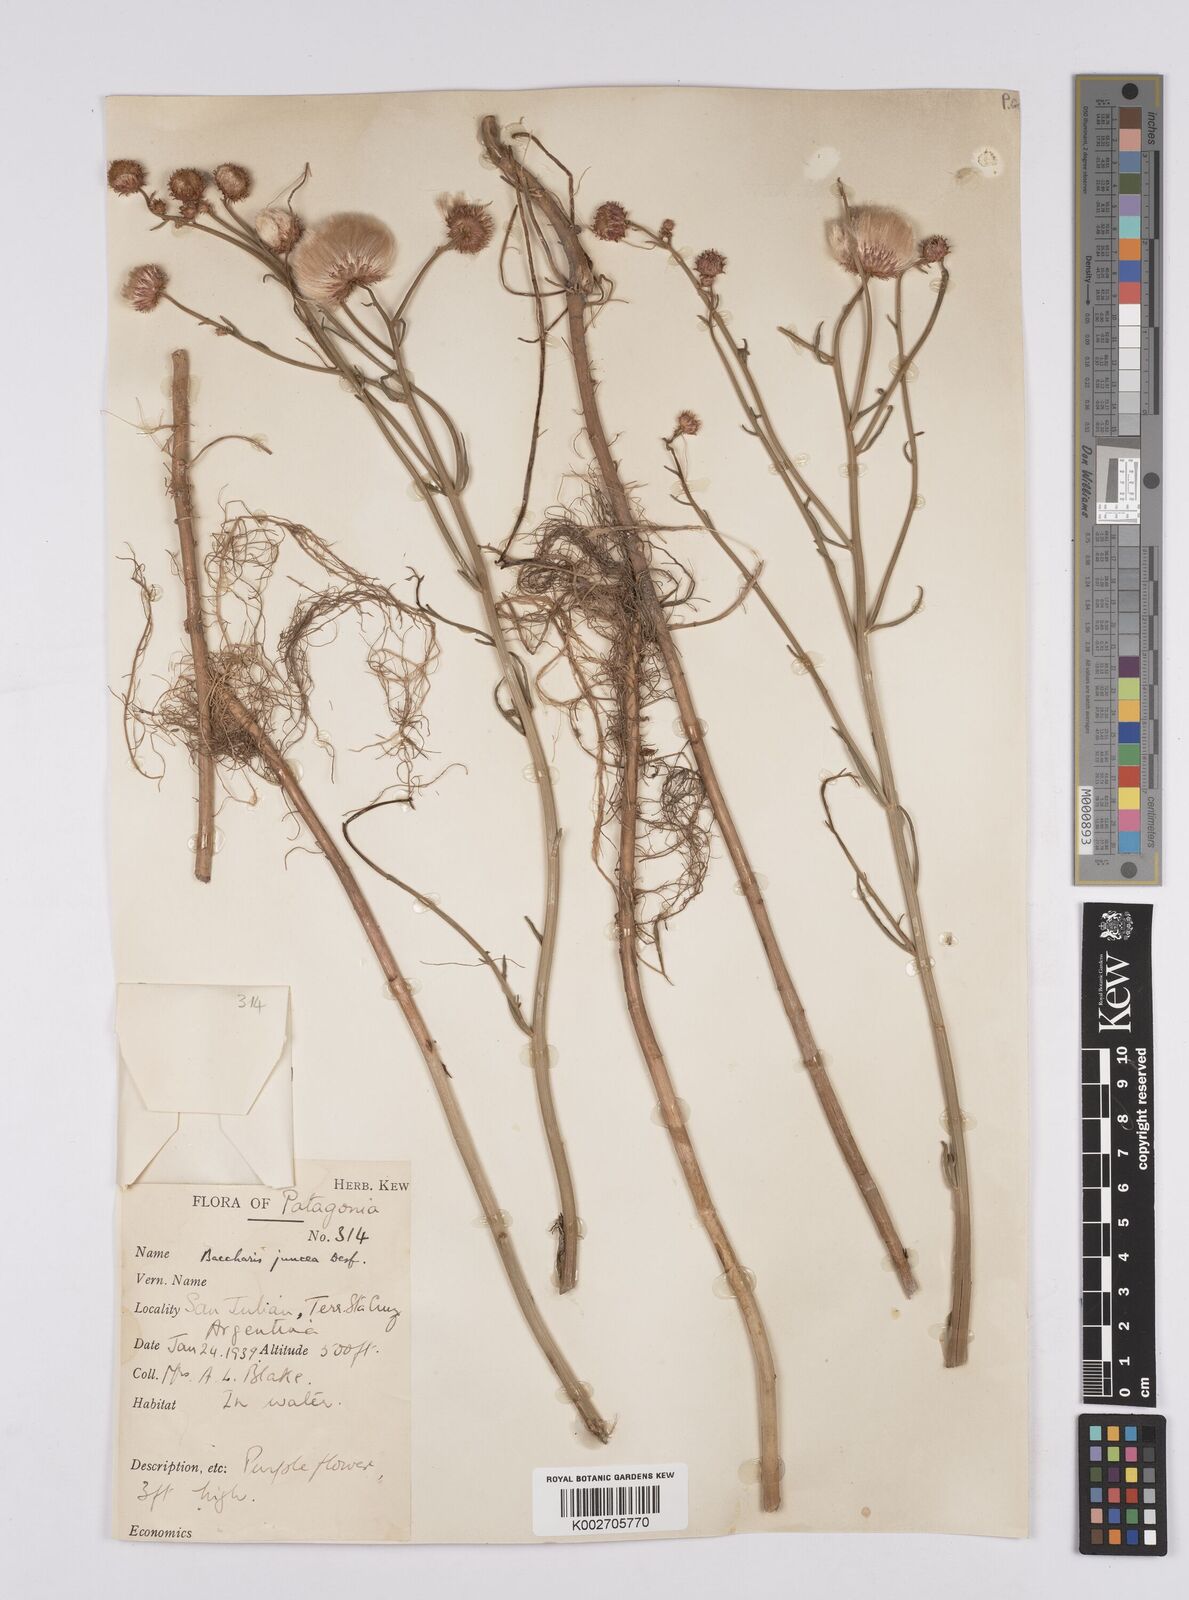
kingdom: Plantae
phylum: Tracheophyta
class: Magnoliopsida
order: Asterales
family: Asteraceae
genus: Baccharis
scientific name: Baccharis juncea
